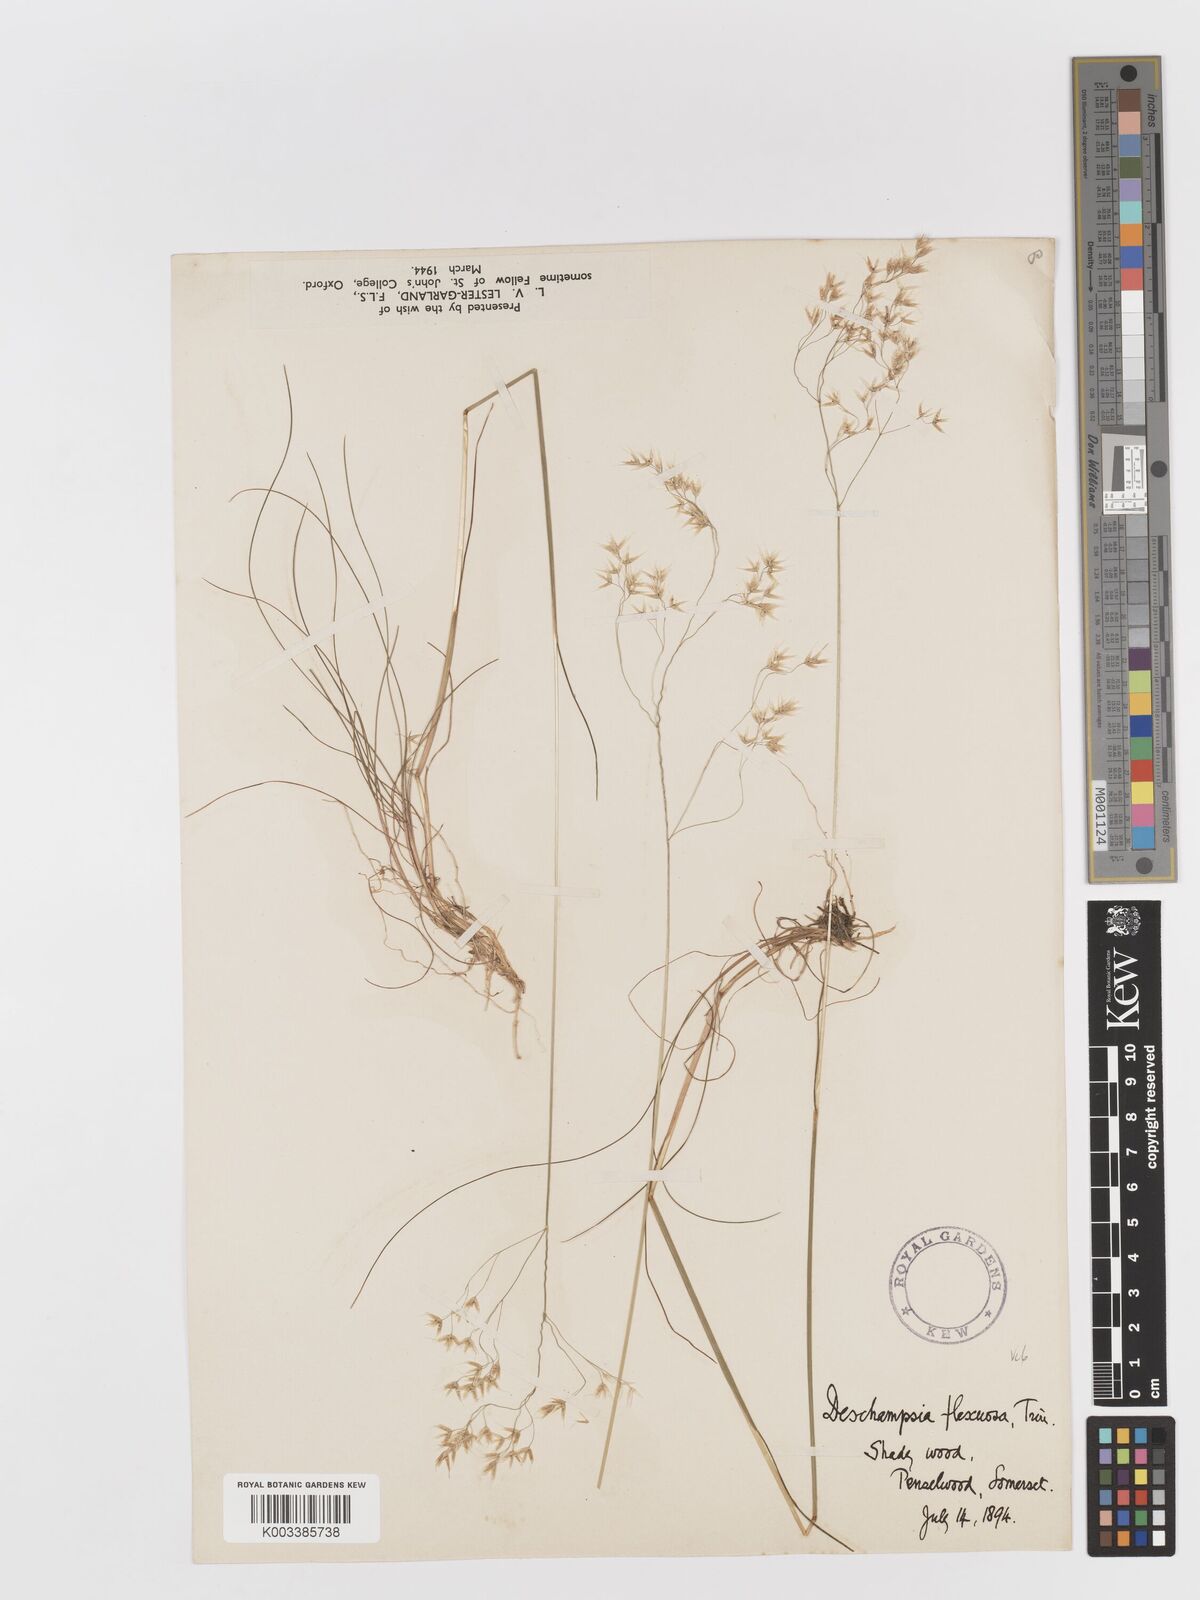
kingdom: Plantae
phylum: Tracheophyta
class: Liliopsida
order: Poales
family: Poaceae
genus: Avenella
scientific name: Avenella flexuosa
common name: Wavy hairgrass
